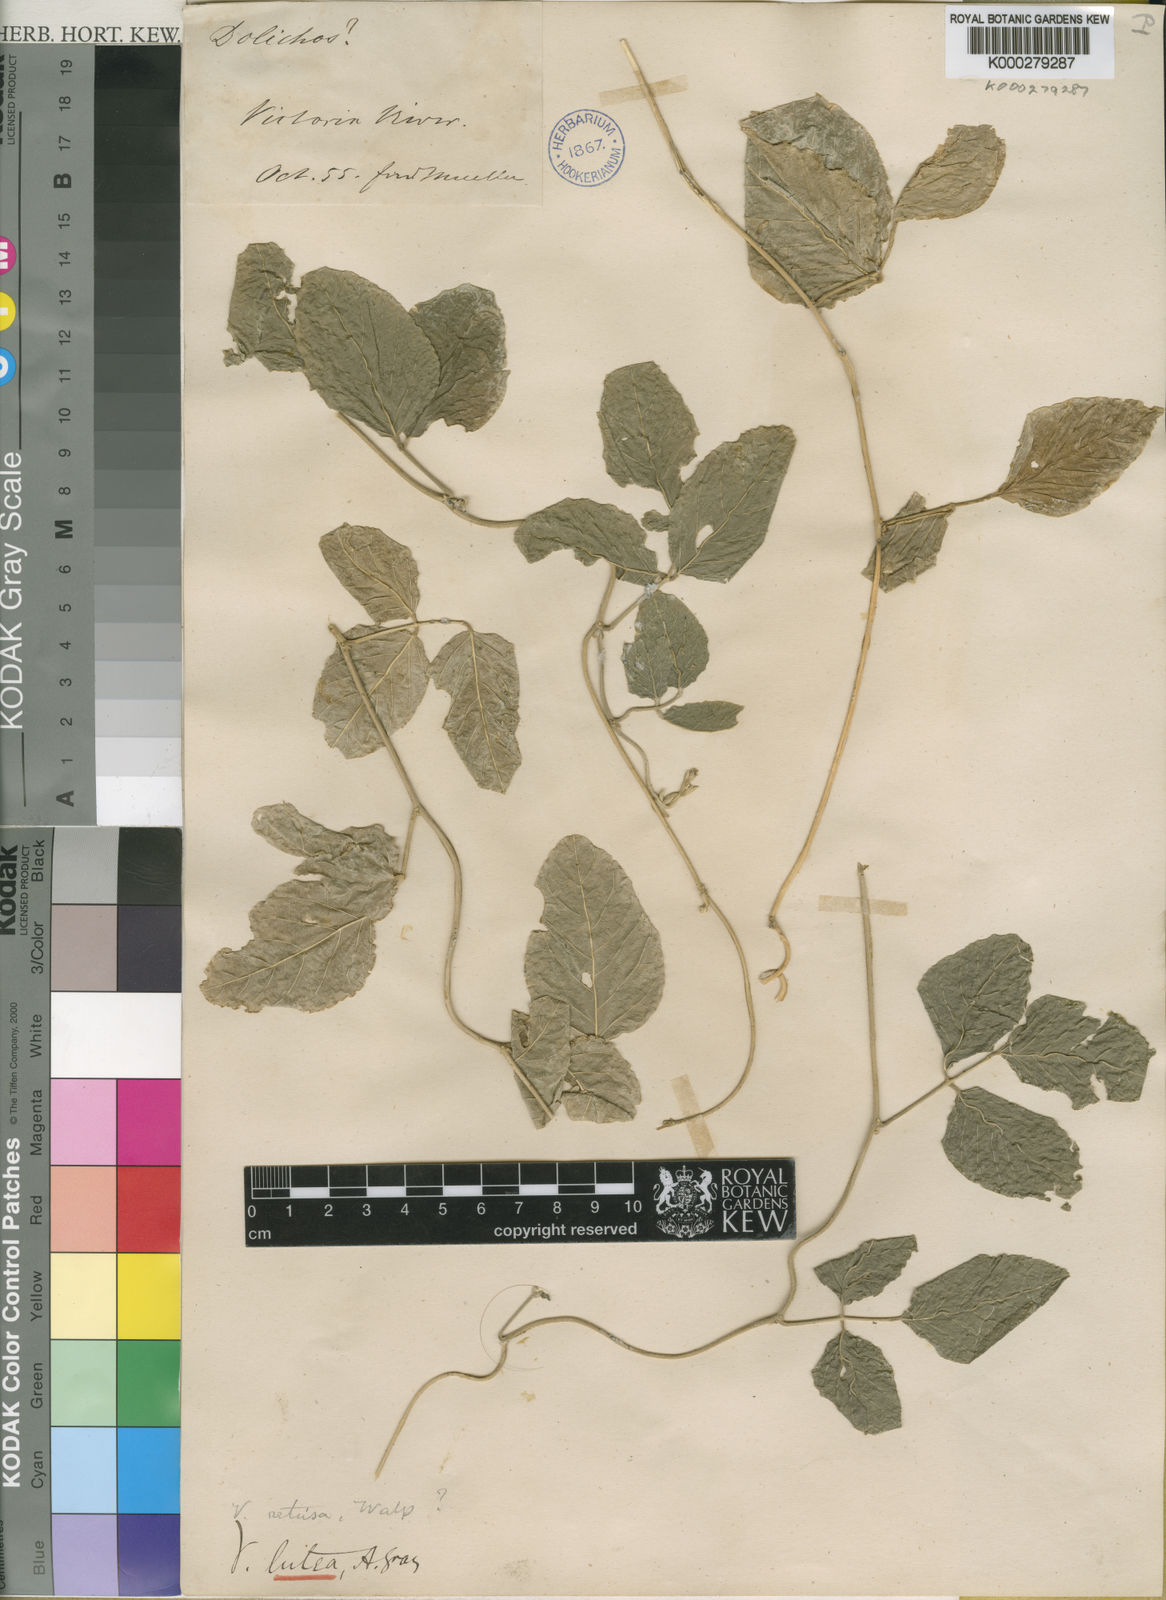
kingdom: Plantae
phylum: Tracheophyta
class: Magnoliopsida
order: Fabales
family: Fabaceae
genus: Vigna
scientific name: Vigna luteola
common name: Hairypod cowpea
